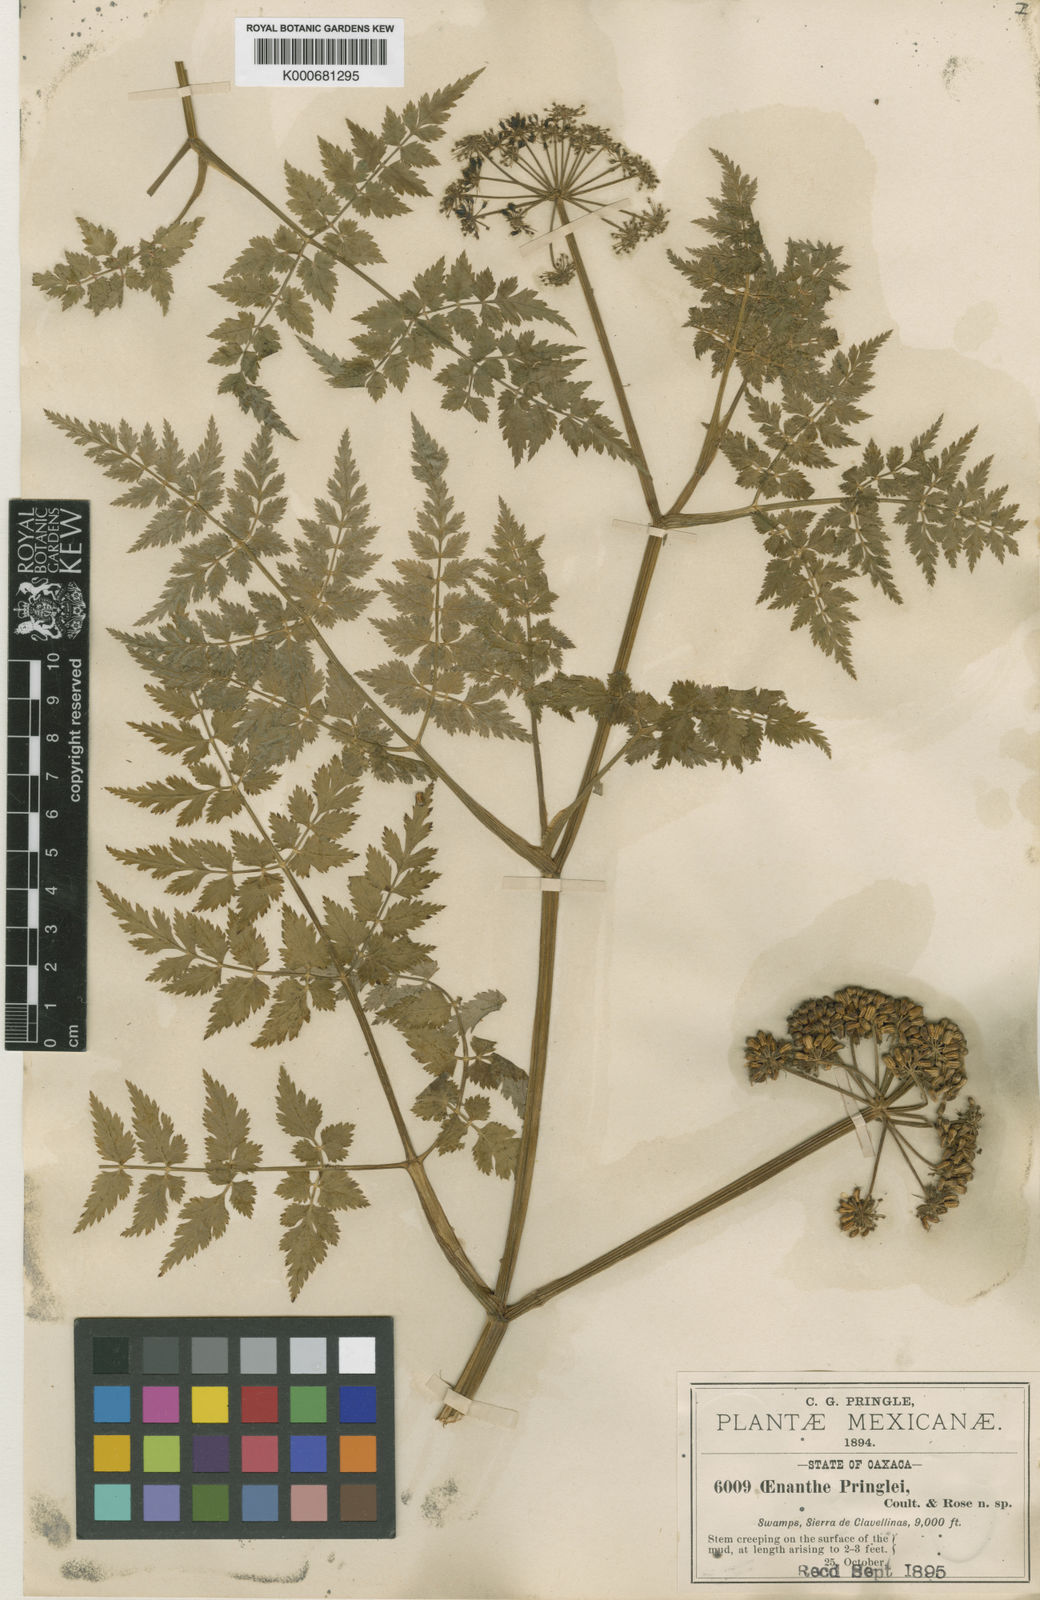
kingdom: Plantae
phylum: Tracheophyta
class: Magnoliopsida
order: Apiales
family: Apiaceae
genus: Oenanthe
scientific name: Oenanthe pringlei
